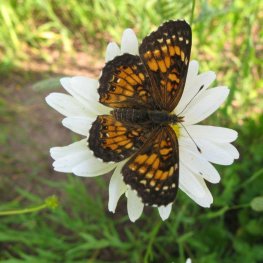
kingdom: Animalia
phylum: Arthropoda
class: Insecta
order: Lepidoptera
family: Nymphalidae
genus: Chlosyne
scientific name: Chlosyne harrisii
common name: Harris's Checkerspot
